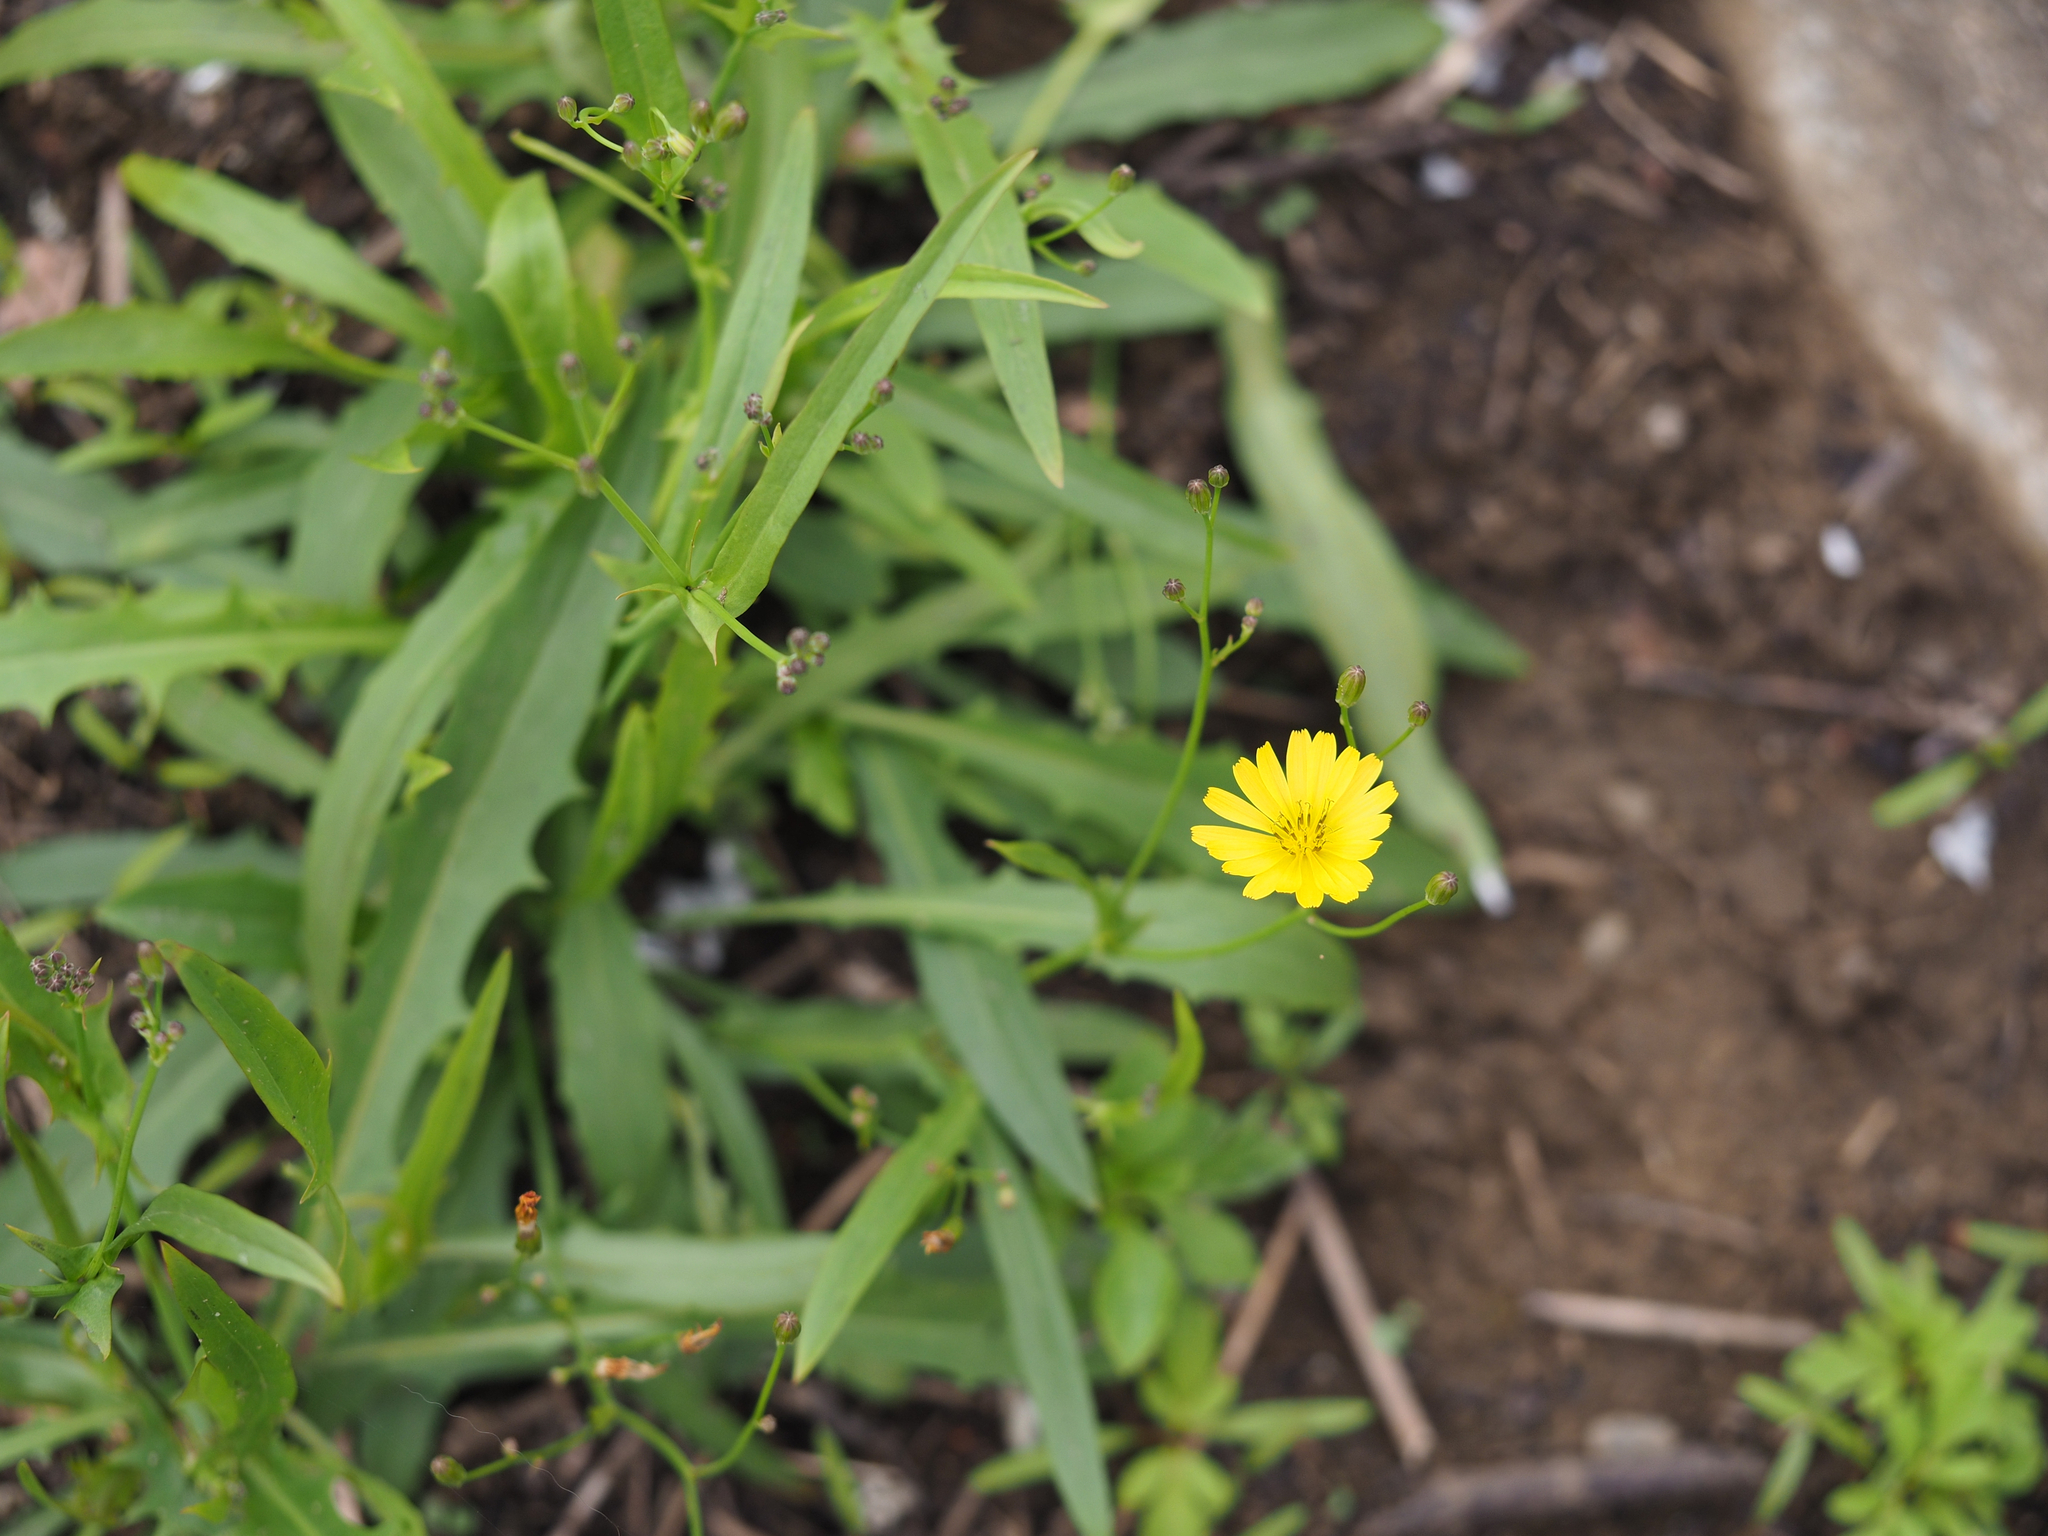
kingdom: Plantae
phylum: Tracheophyta
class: Magnoliopsida
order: Asterales
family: Asteraceae
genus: Ixeris
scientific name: Ixeris chinensis
